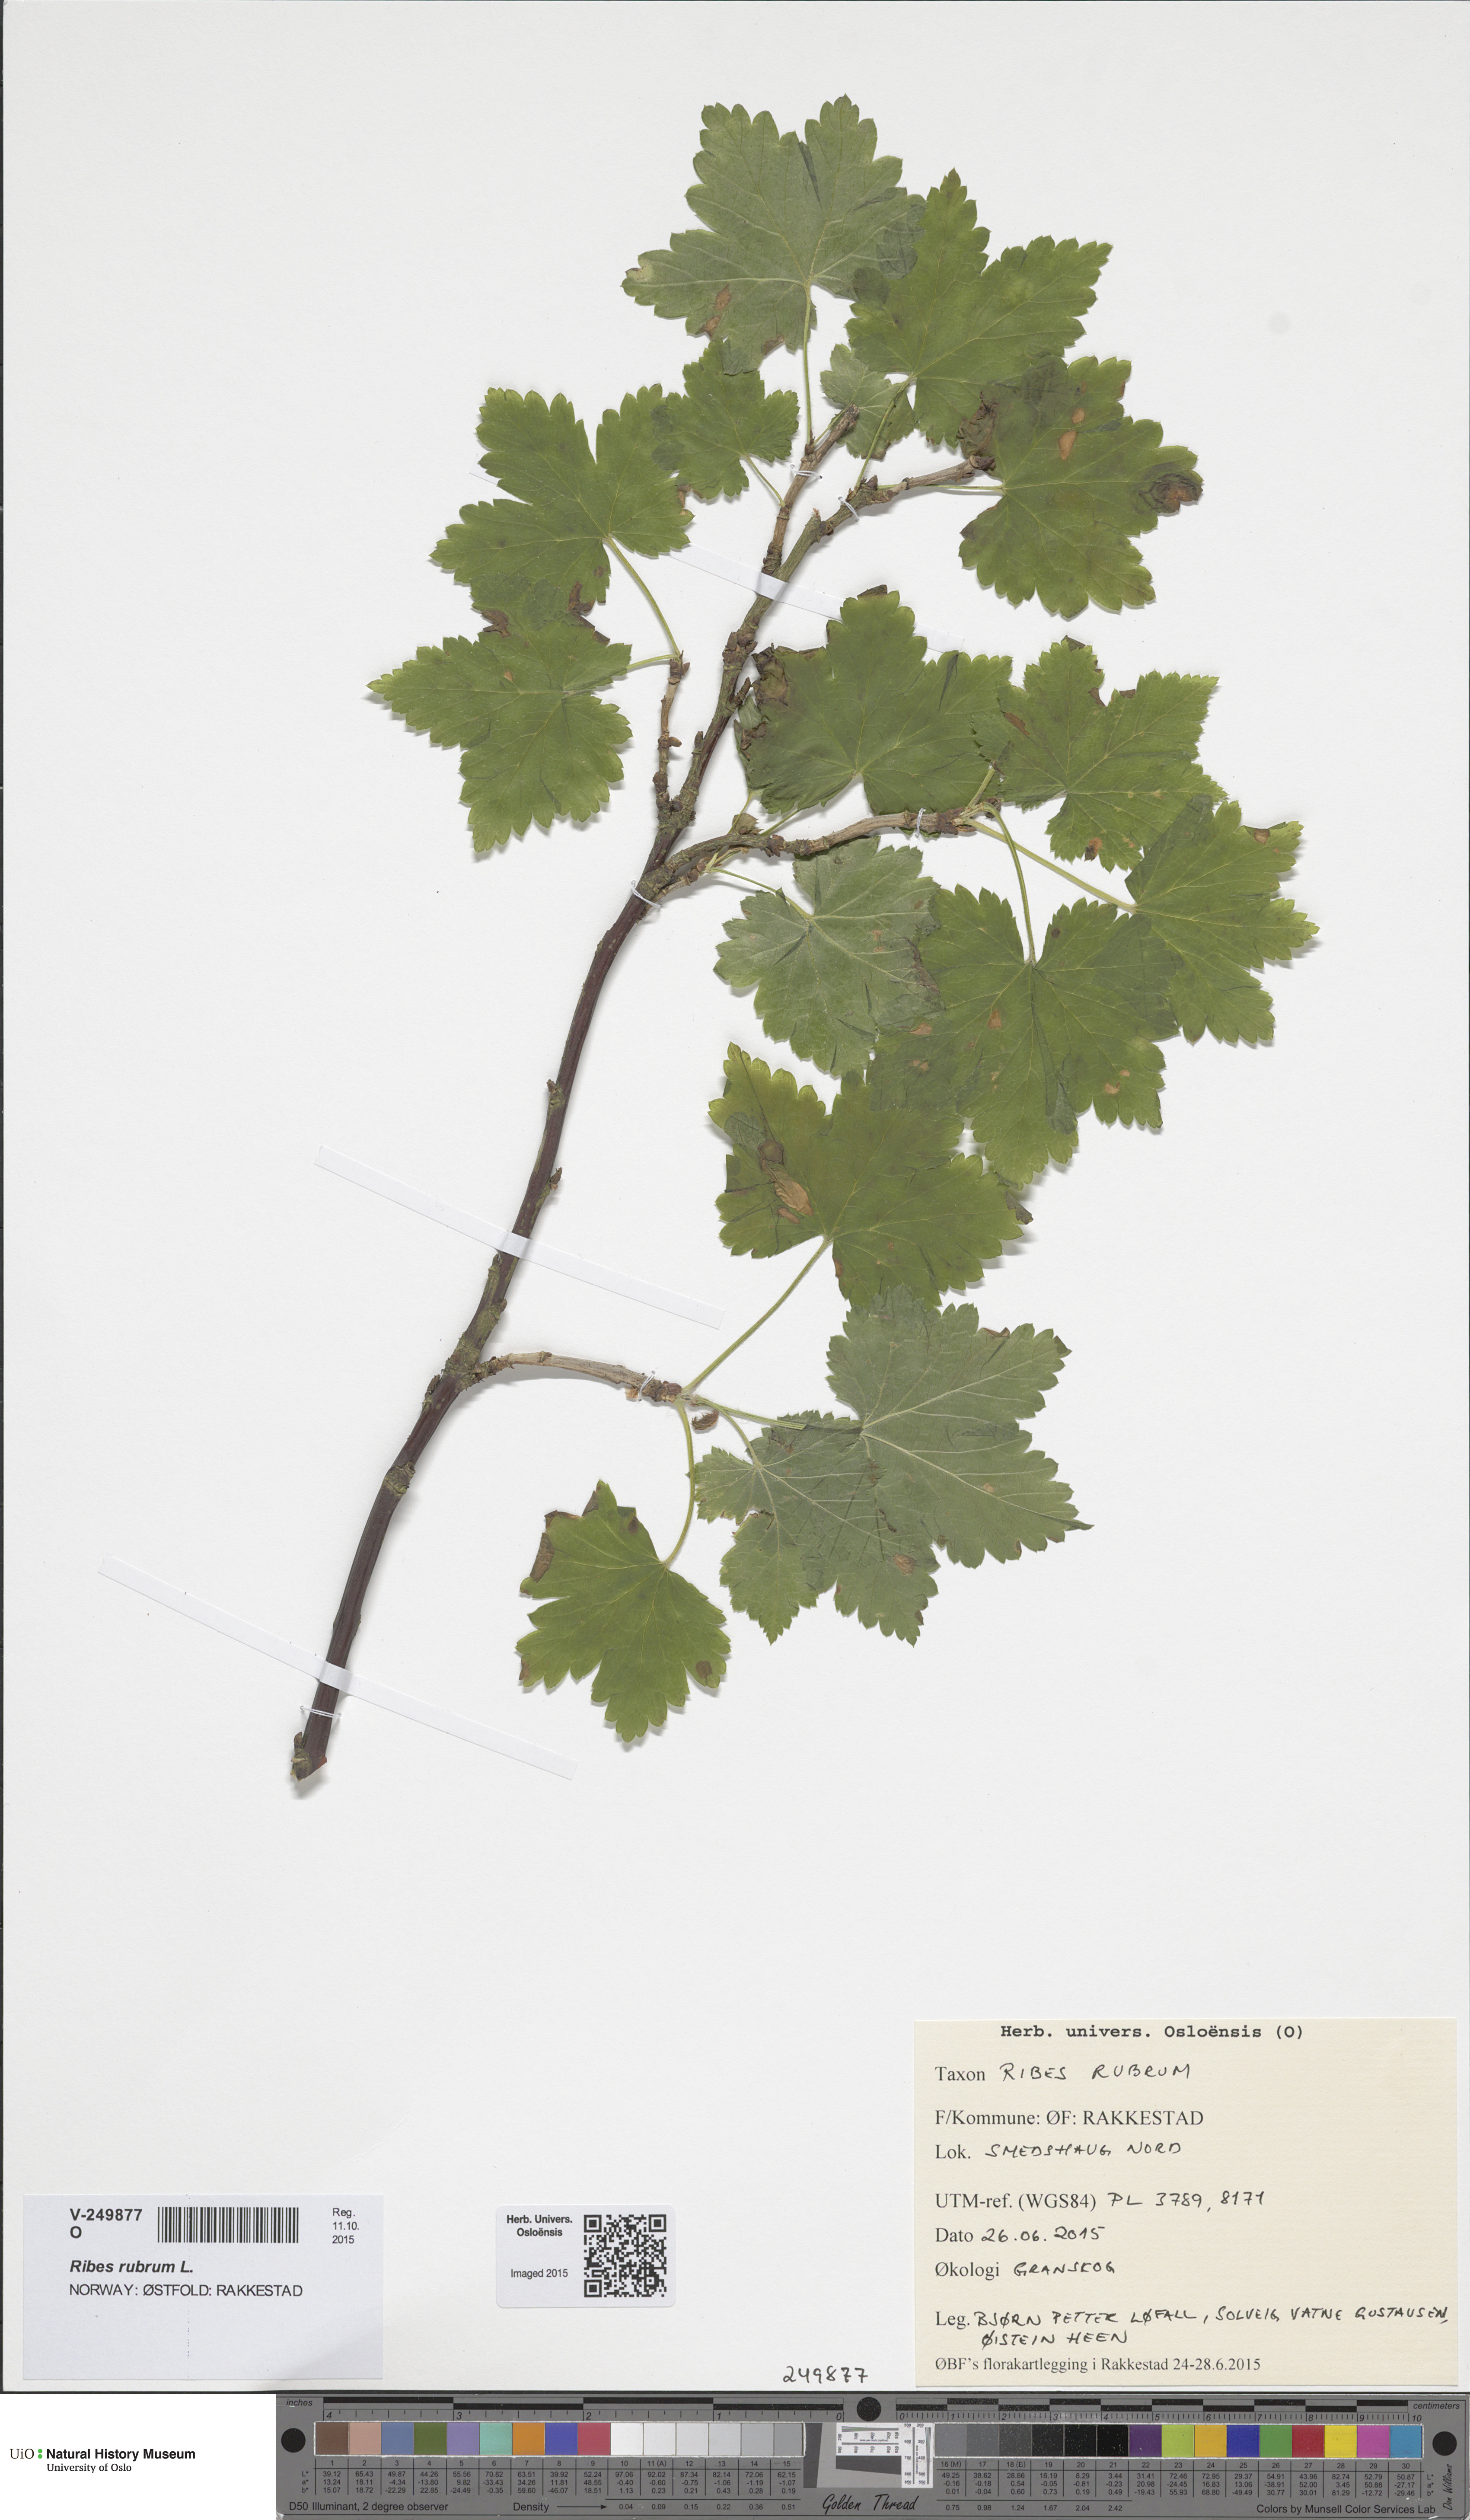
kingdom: Plantae
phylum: Tracheophyta
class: Magnoliopsida
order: Saxifragales
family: Grossulariaceae
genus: Ribes
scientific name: Ribes rubrum
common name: Red currant
